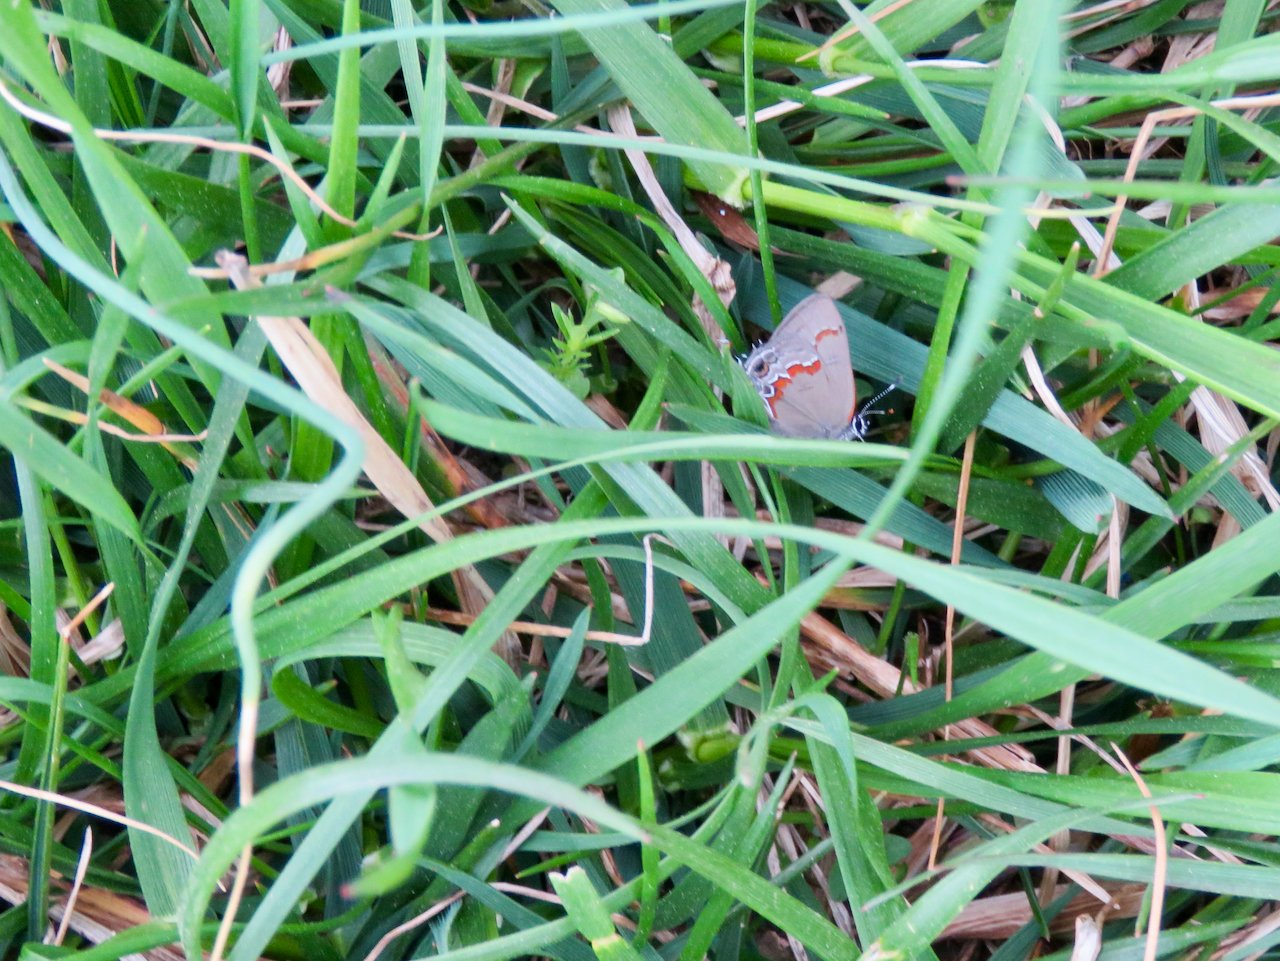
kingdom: Animalia
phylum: Arthropoda
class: Insecta
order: Lepidoptera
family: Lycaenidae
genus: Calycopis
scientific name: Calycopis cecrops
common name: Red-banded Hairstreak
